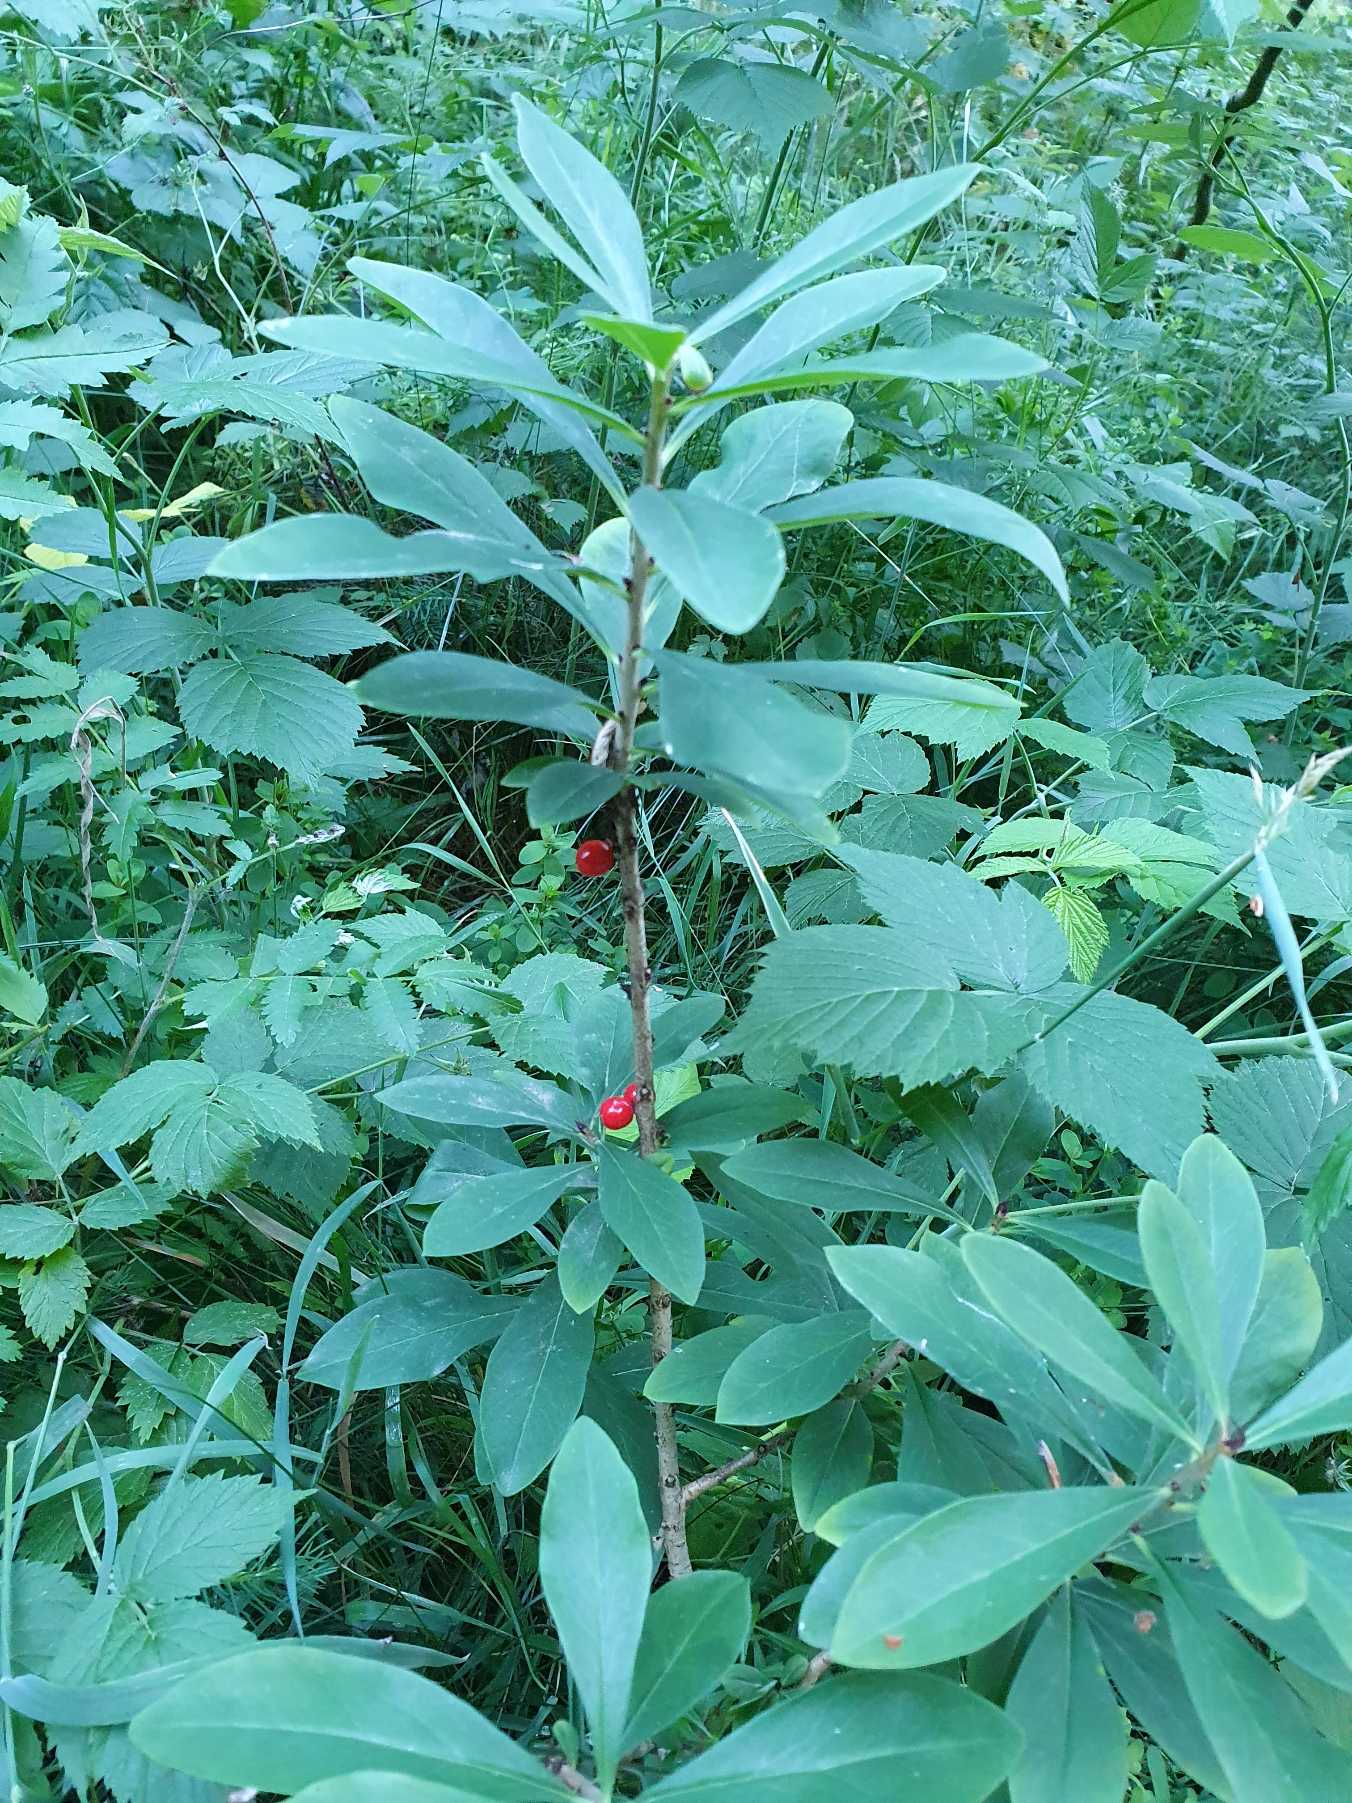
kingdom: Plantae
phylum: Tracheophyta
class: Magnoliopsida
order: Malvales
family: Thymelaeaceae
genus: Daphne
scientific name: Daphne mezereum
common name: Pebertræ
